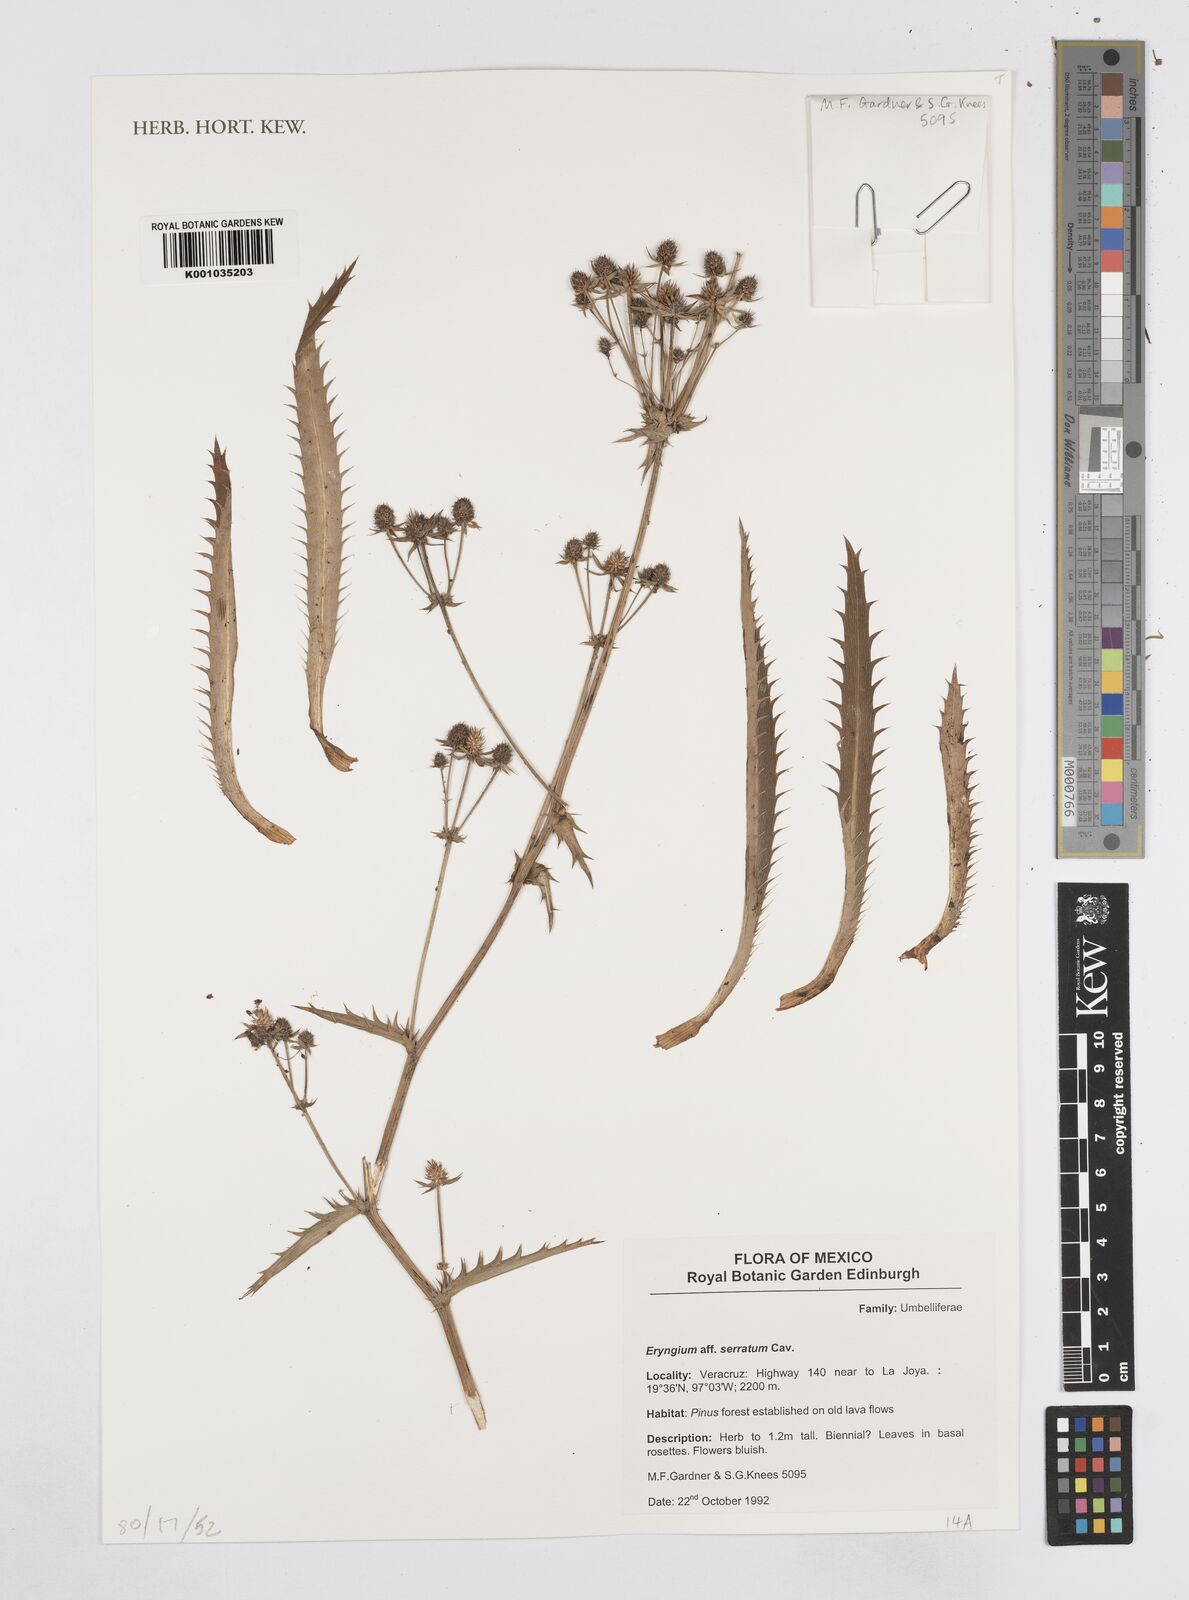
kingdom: Plantae
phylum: Tracheophyta
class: Magnoliopsida
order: Apiales
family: Apiaceae
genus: Eryngium
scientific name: Eryngium serratum
